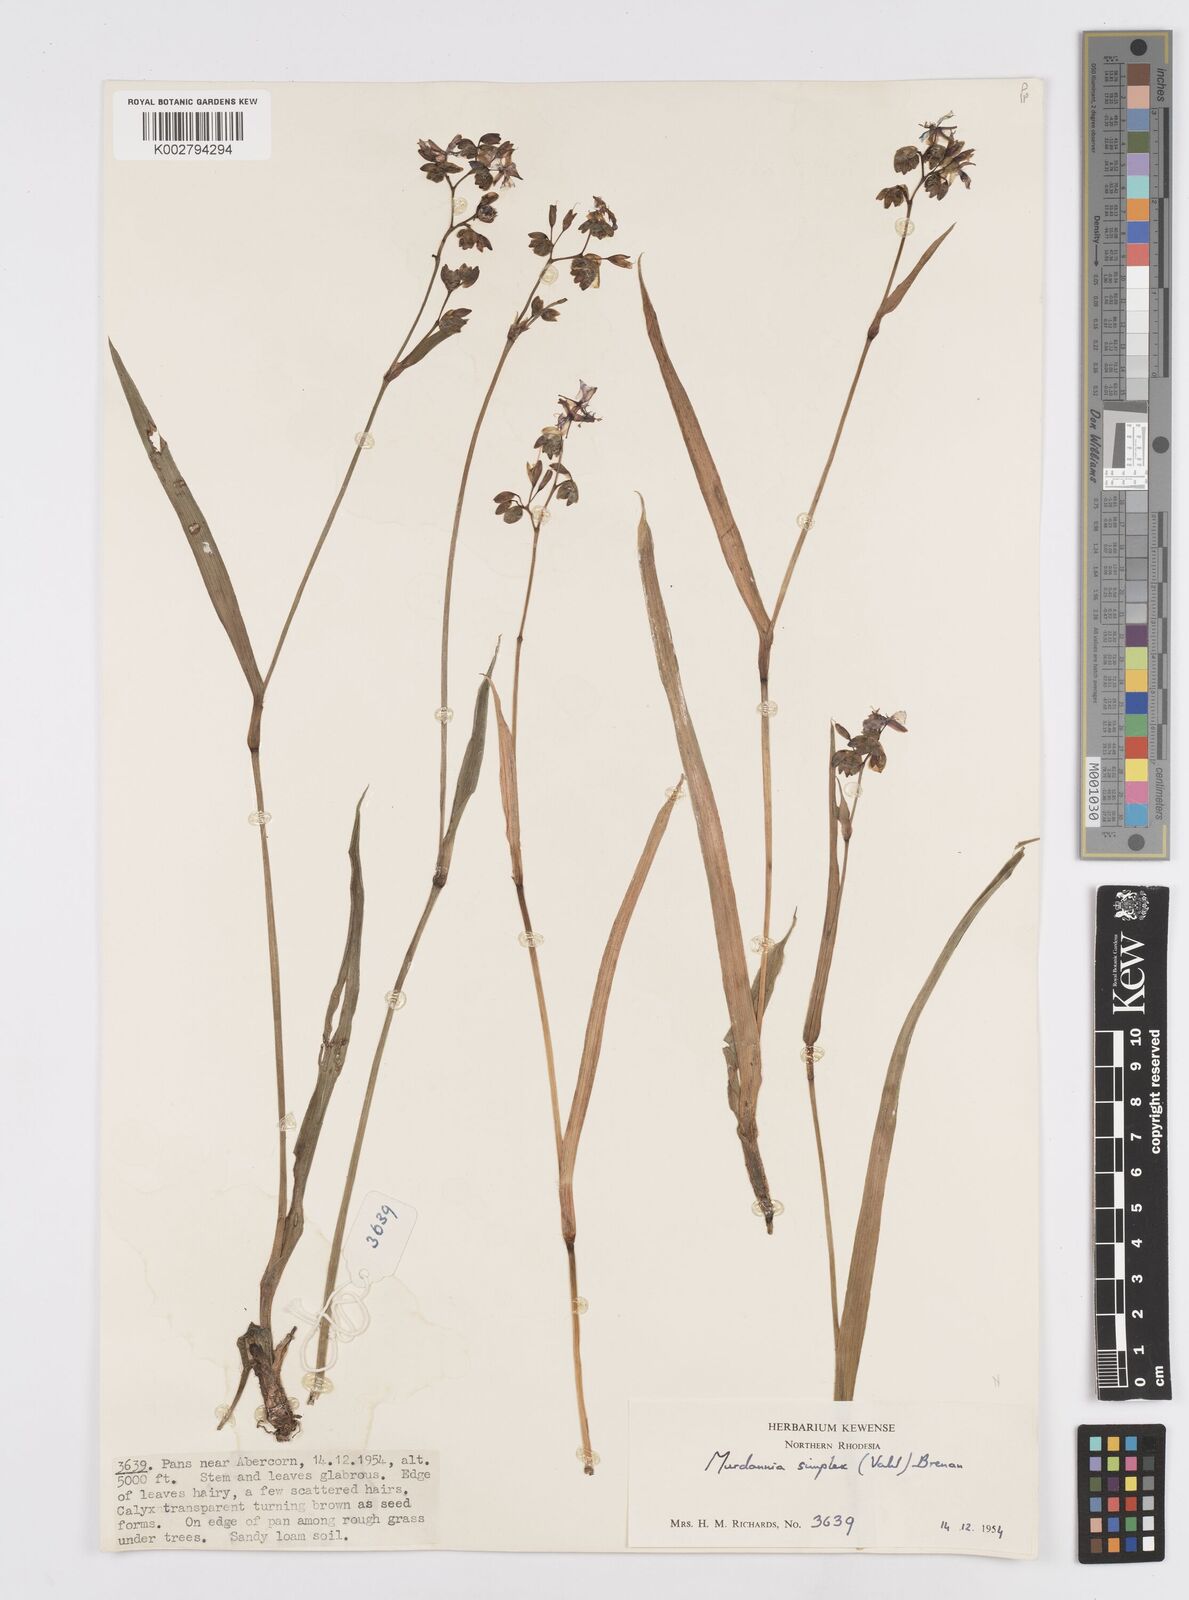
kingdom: Plantae
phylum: Tracheophyta
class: Liliopsida
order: Commelinales
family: Commelinaceae
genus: Murdannia
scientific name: Murdannia simplex
